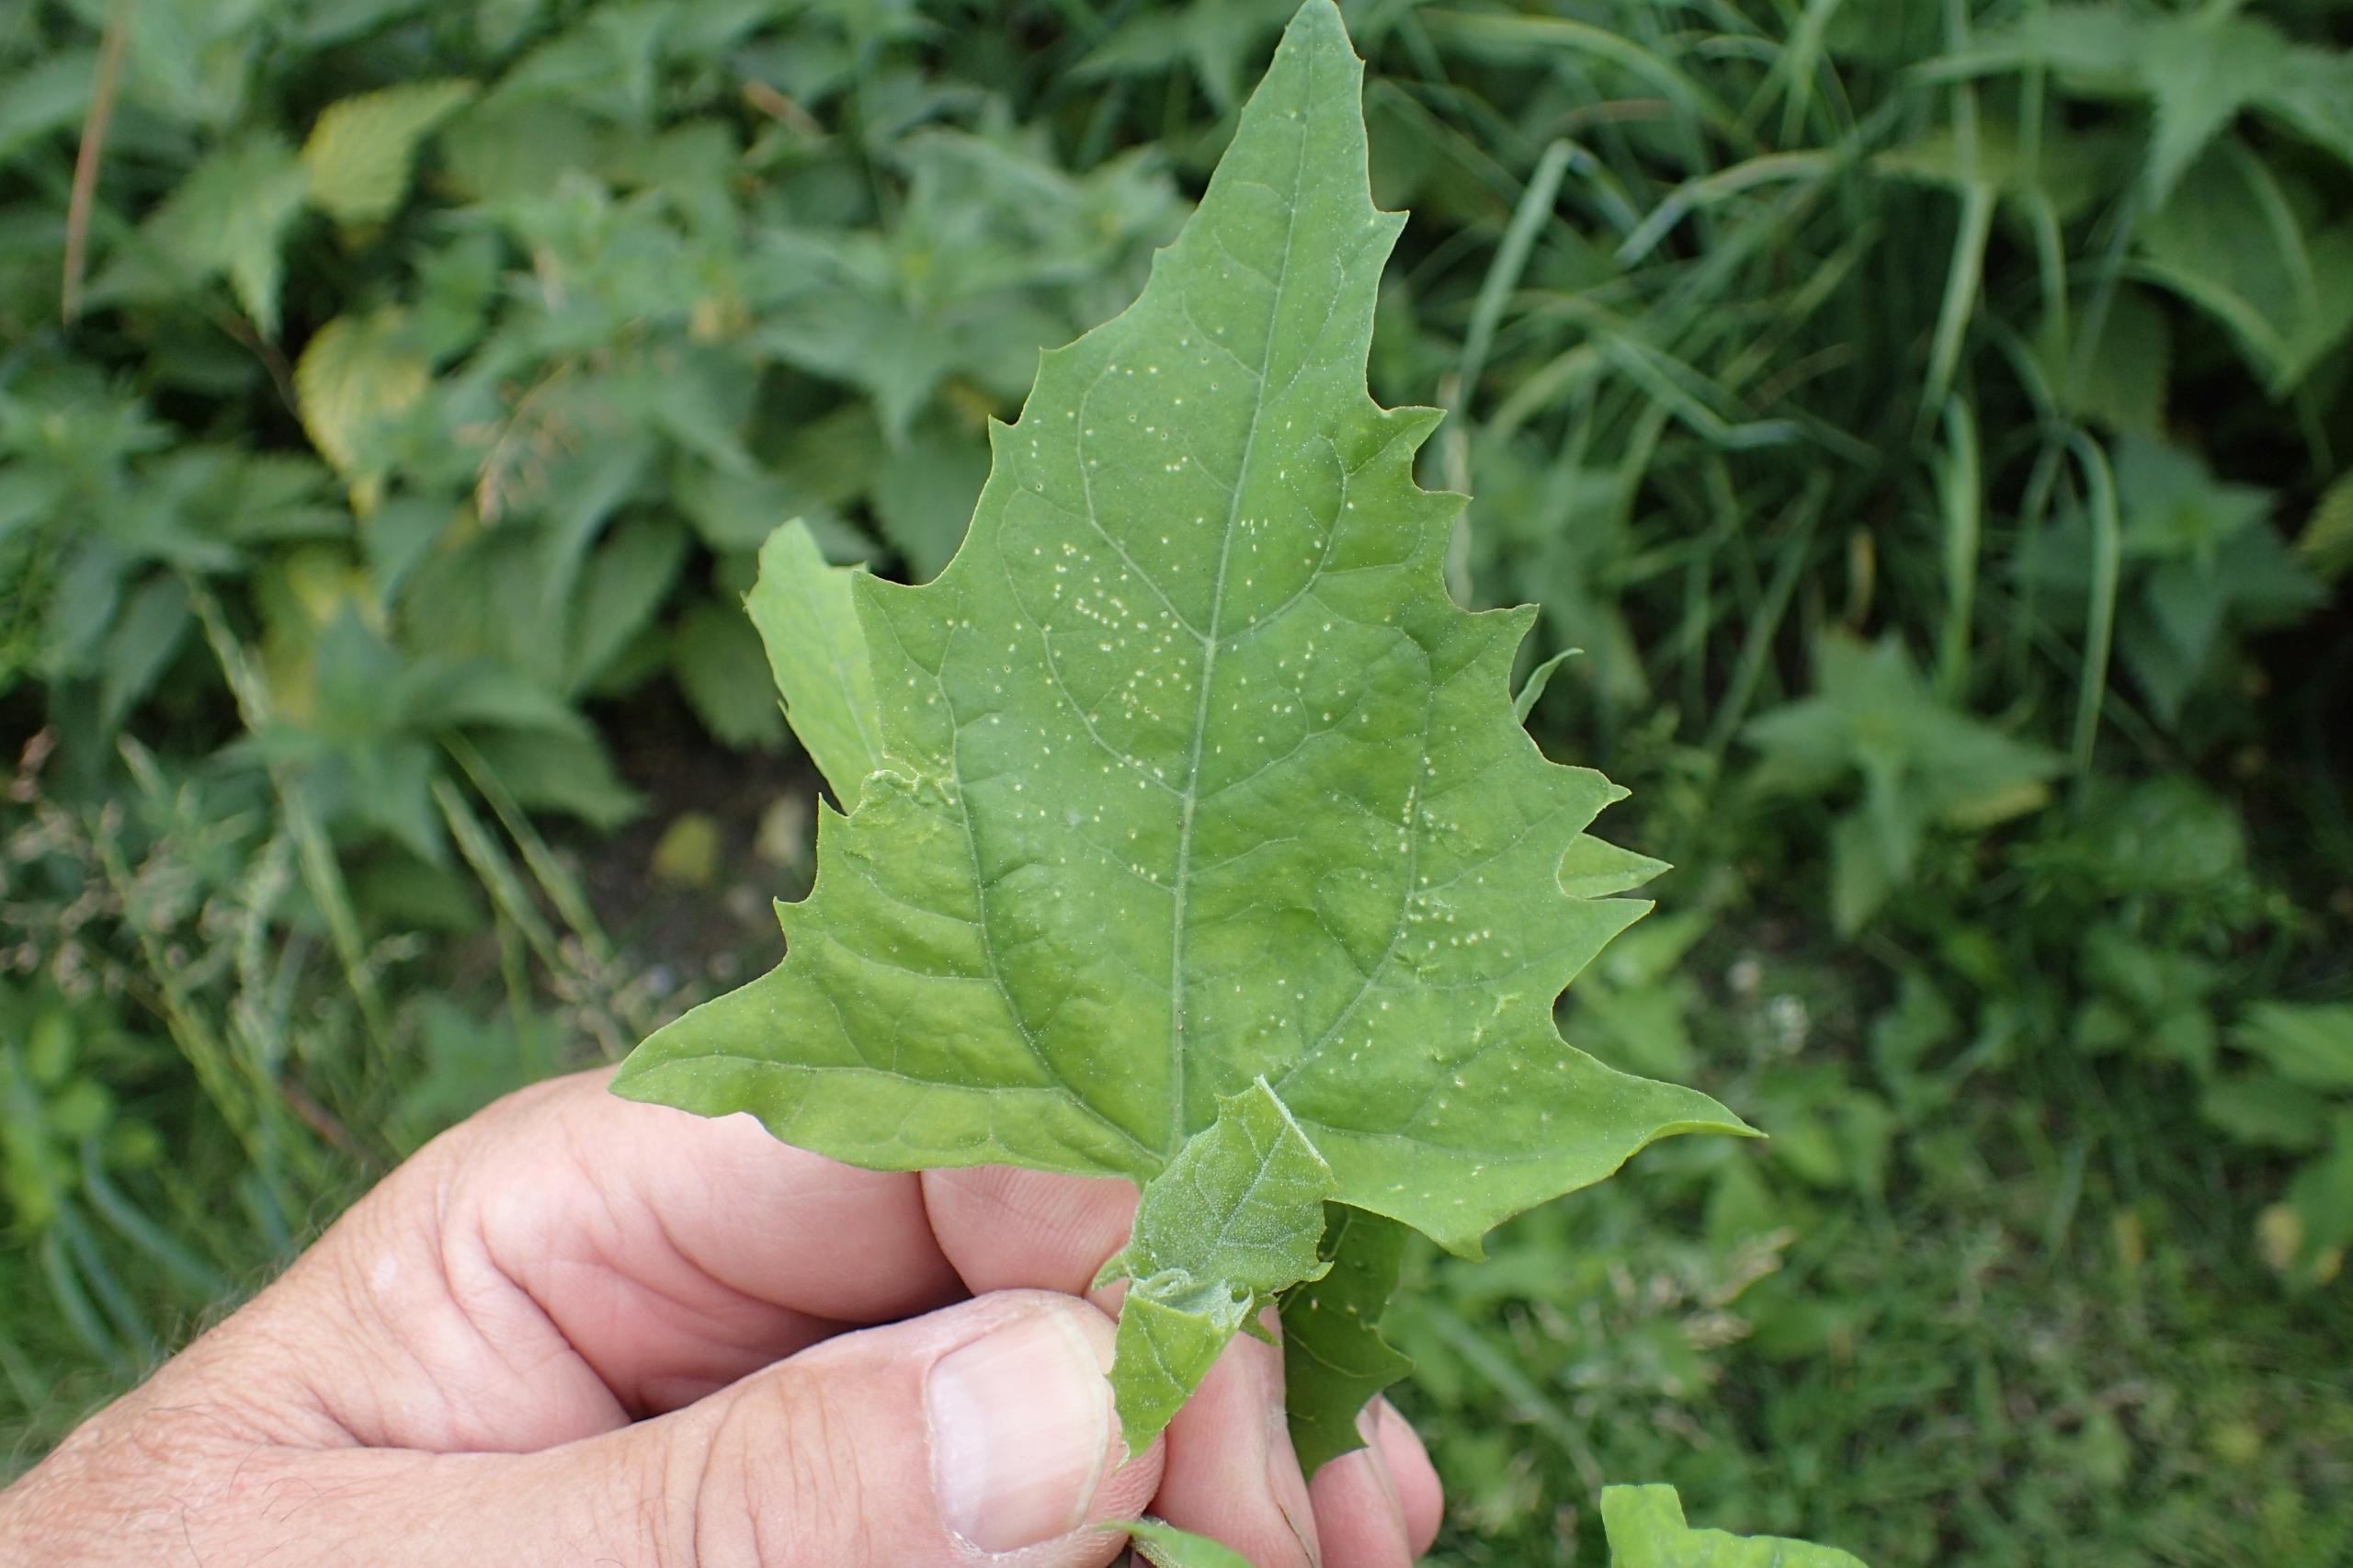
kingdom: Plantae
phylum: Tracheophyta
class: Magnoliopsida
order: Caryophyllales
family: Amaranthaceae
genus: Atriplex
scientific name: Atriplex prostrata
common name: Spyd-mælde
